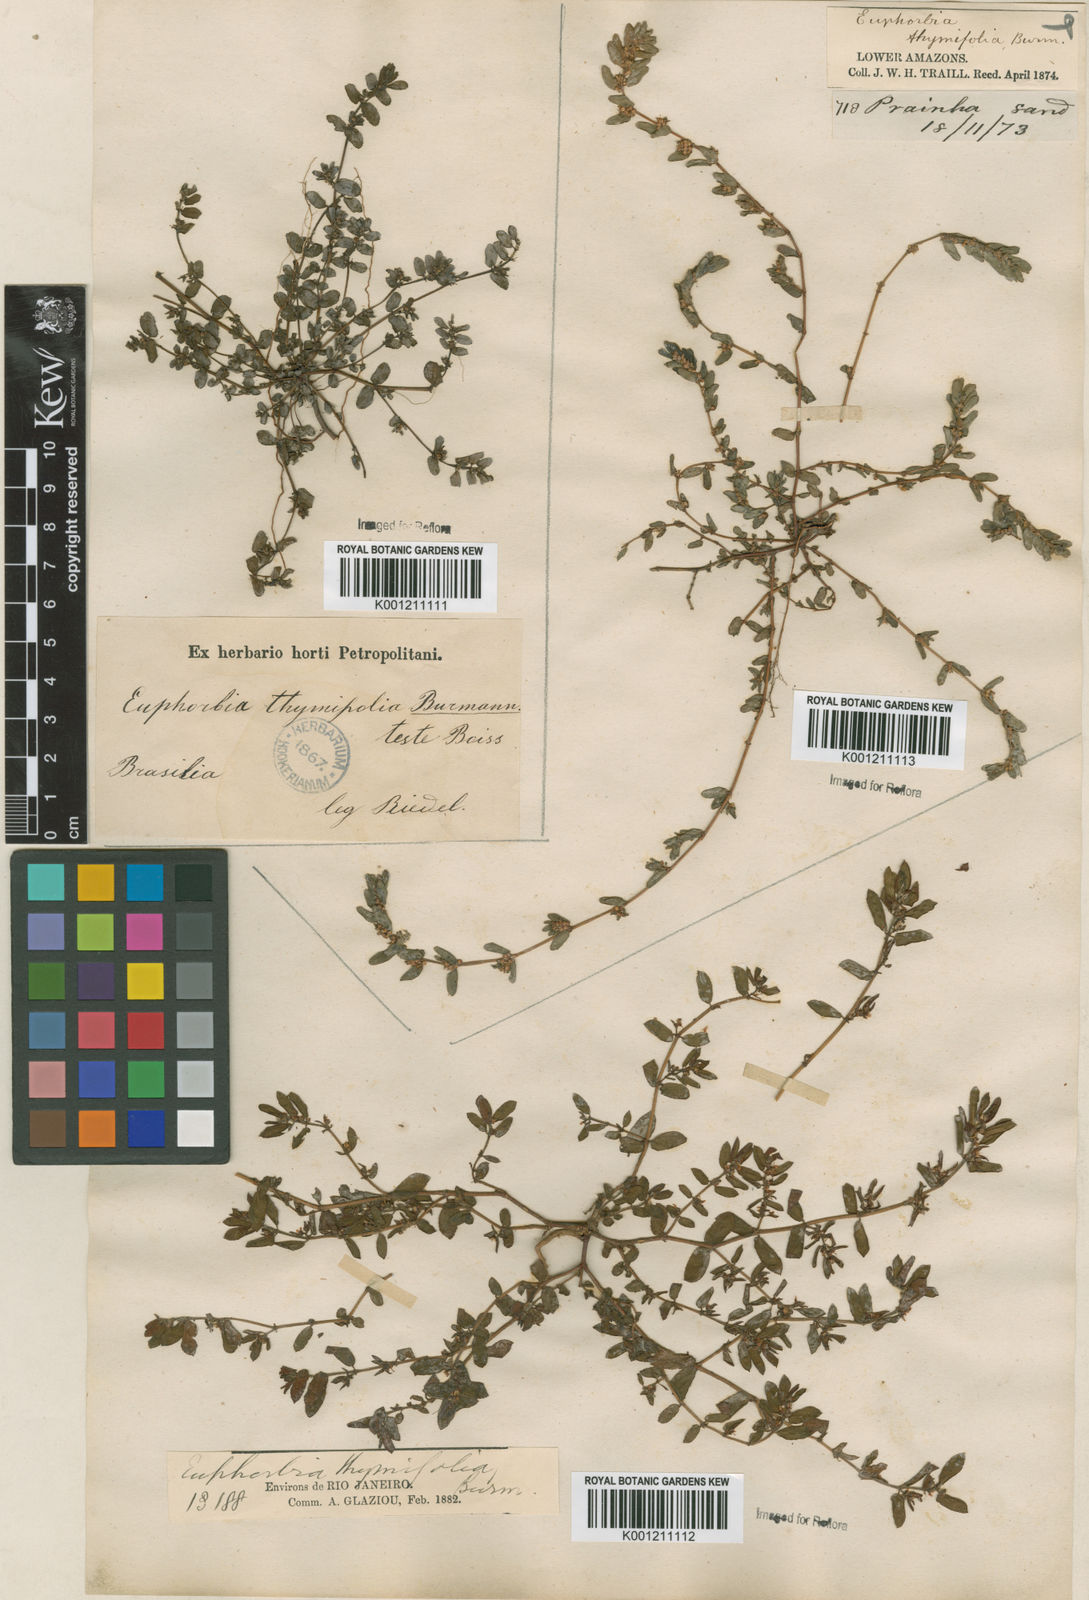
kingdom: Plantae
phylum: Tracheophyta
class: Magnoliopsida
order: Malpighiales
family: Euphorbiaceae
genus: Euphorbia
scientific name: Euphorbia thymifolia
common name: Gulf sandmat
